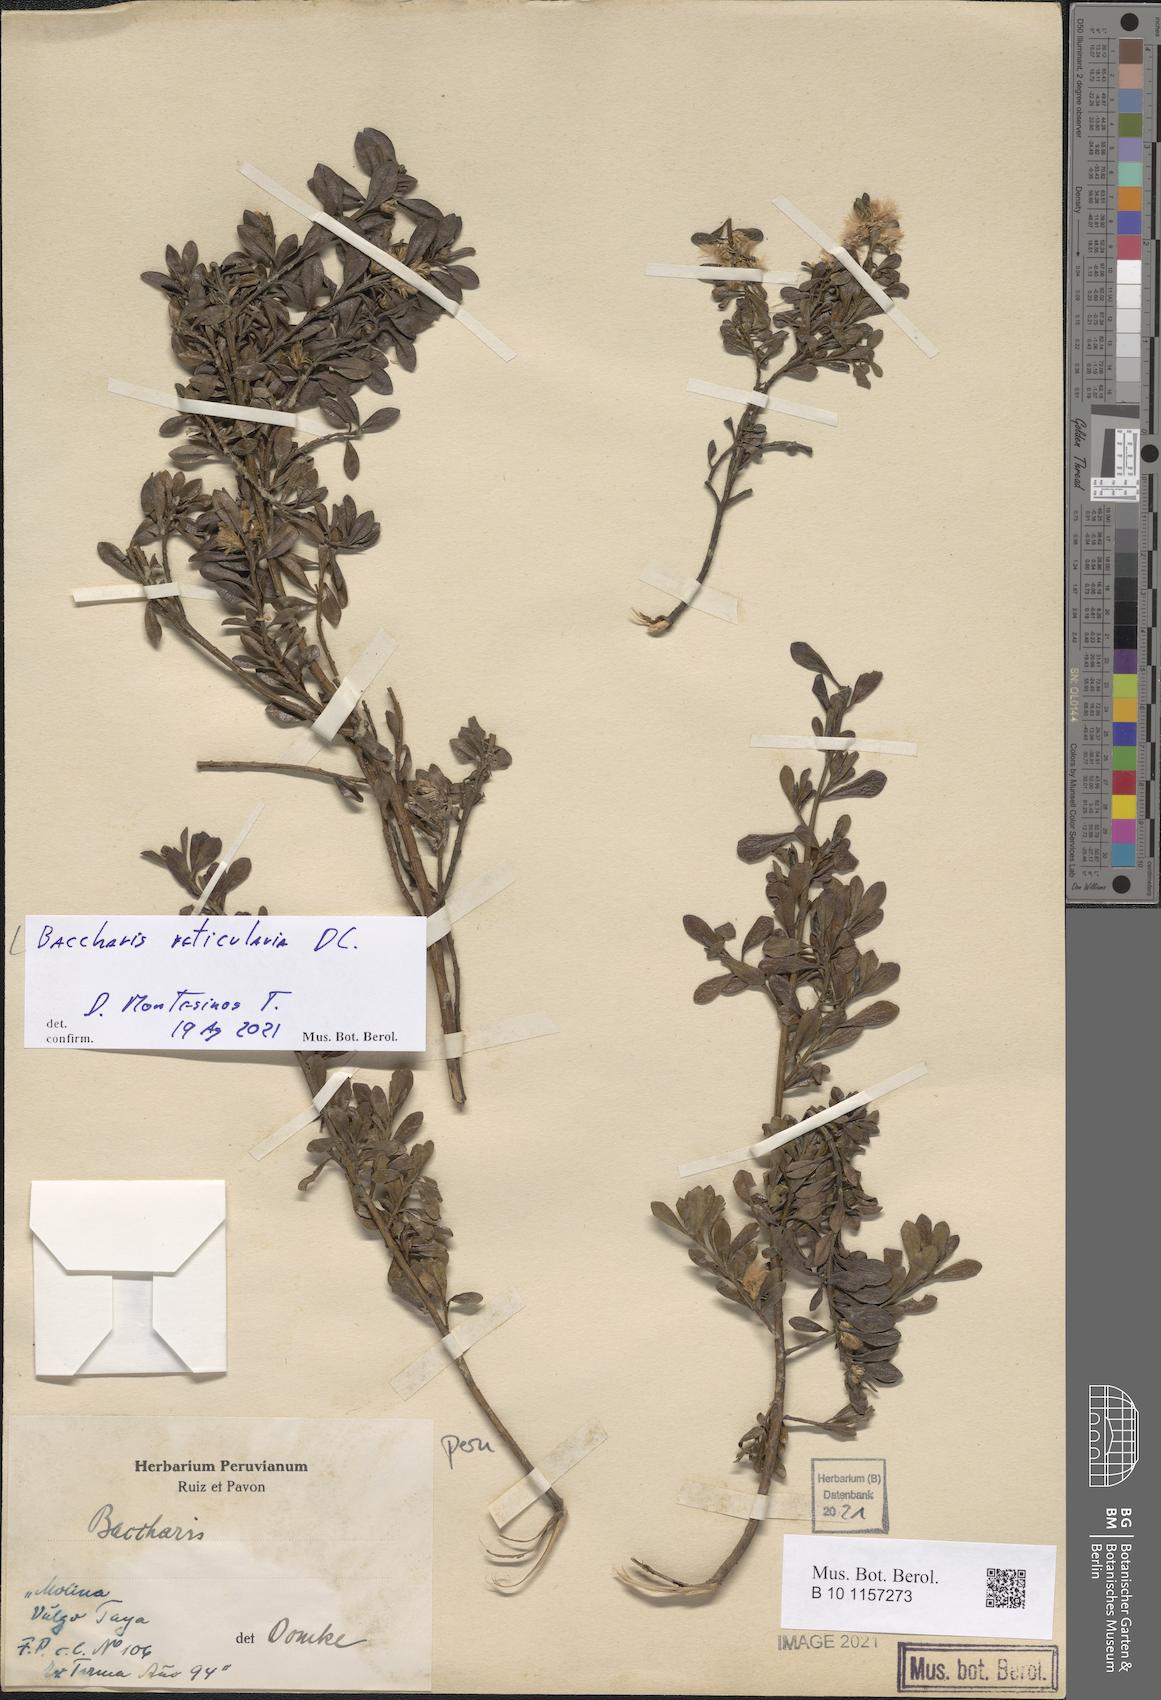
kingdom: Plantae
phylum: Tracheophyta
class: Magnoliopsida
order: Asterales
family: Asteraceae
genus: Baccharis
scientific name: Baccharis reticularia
